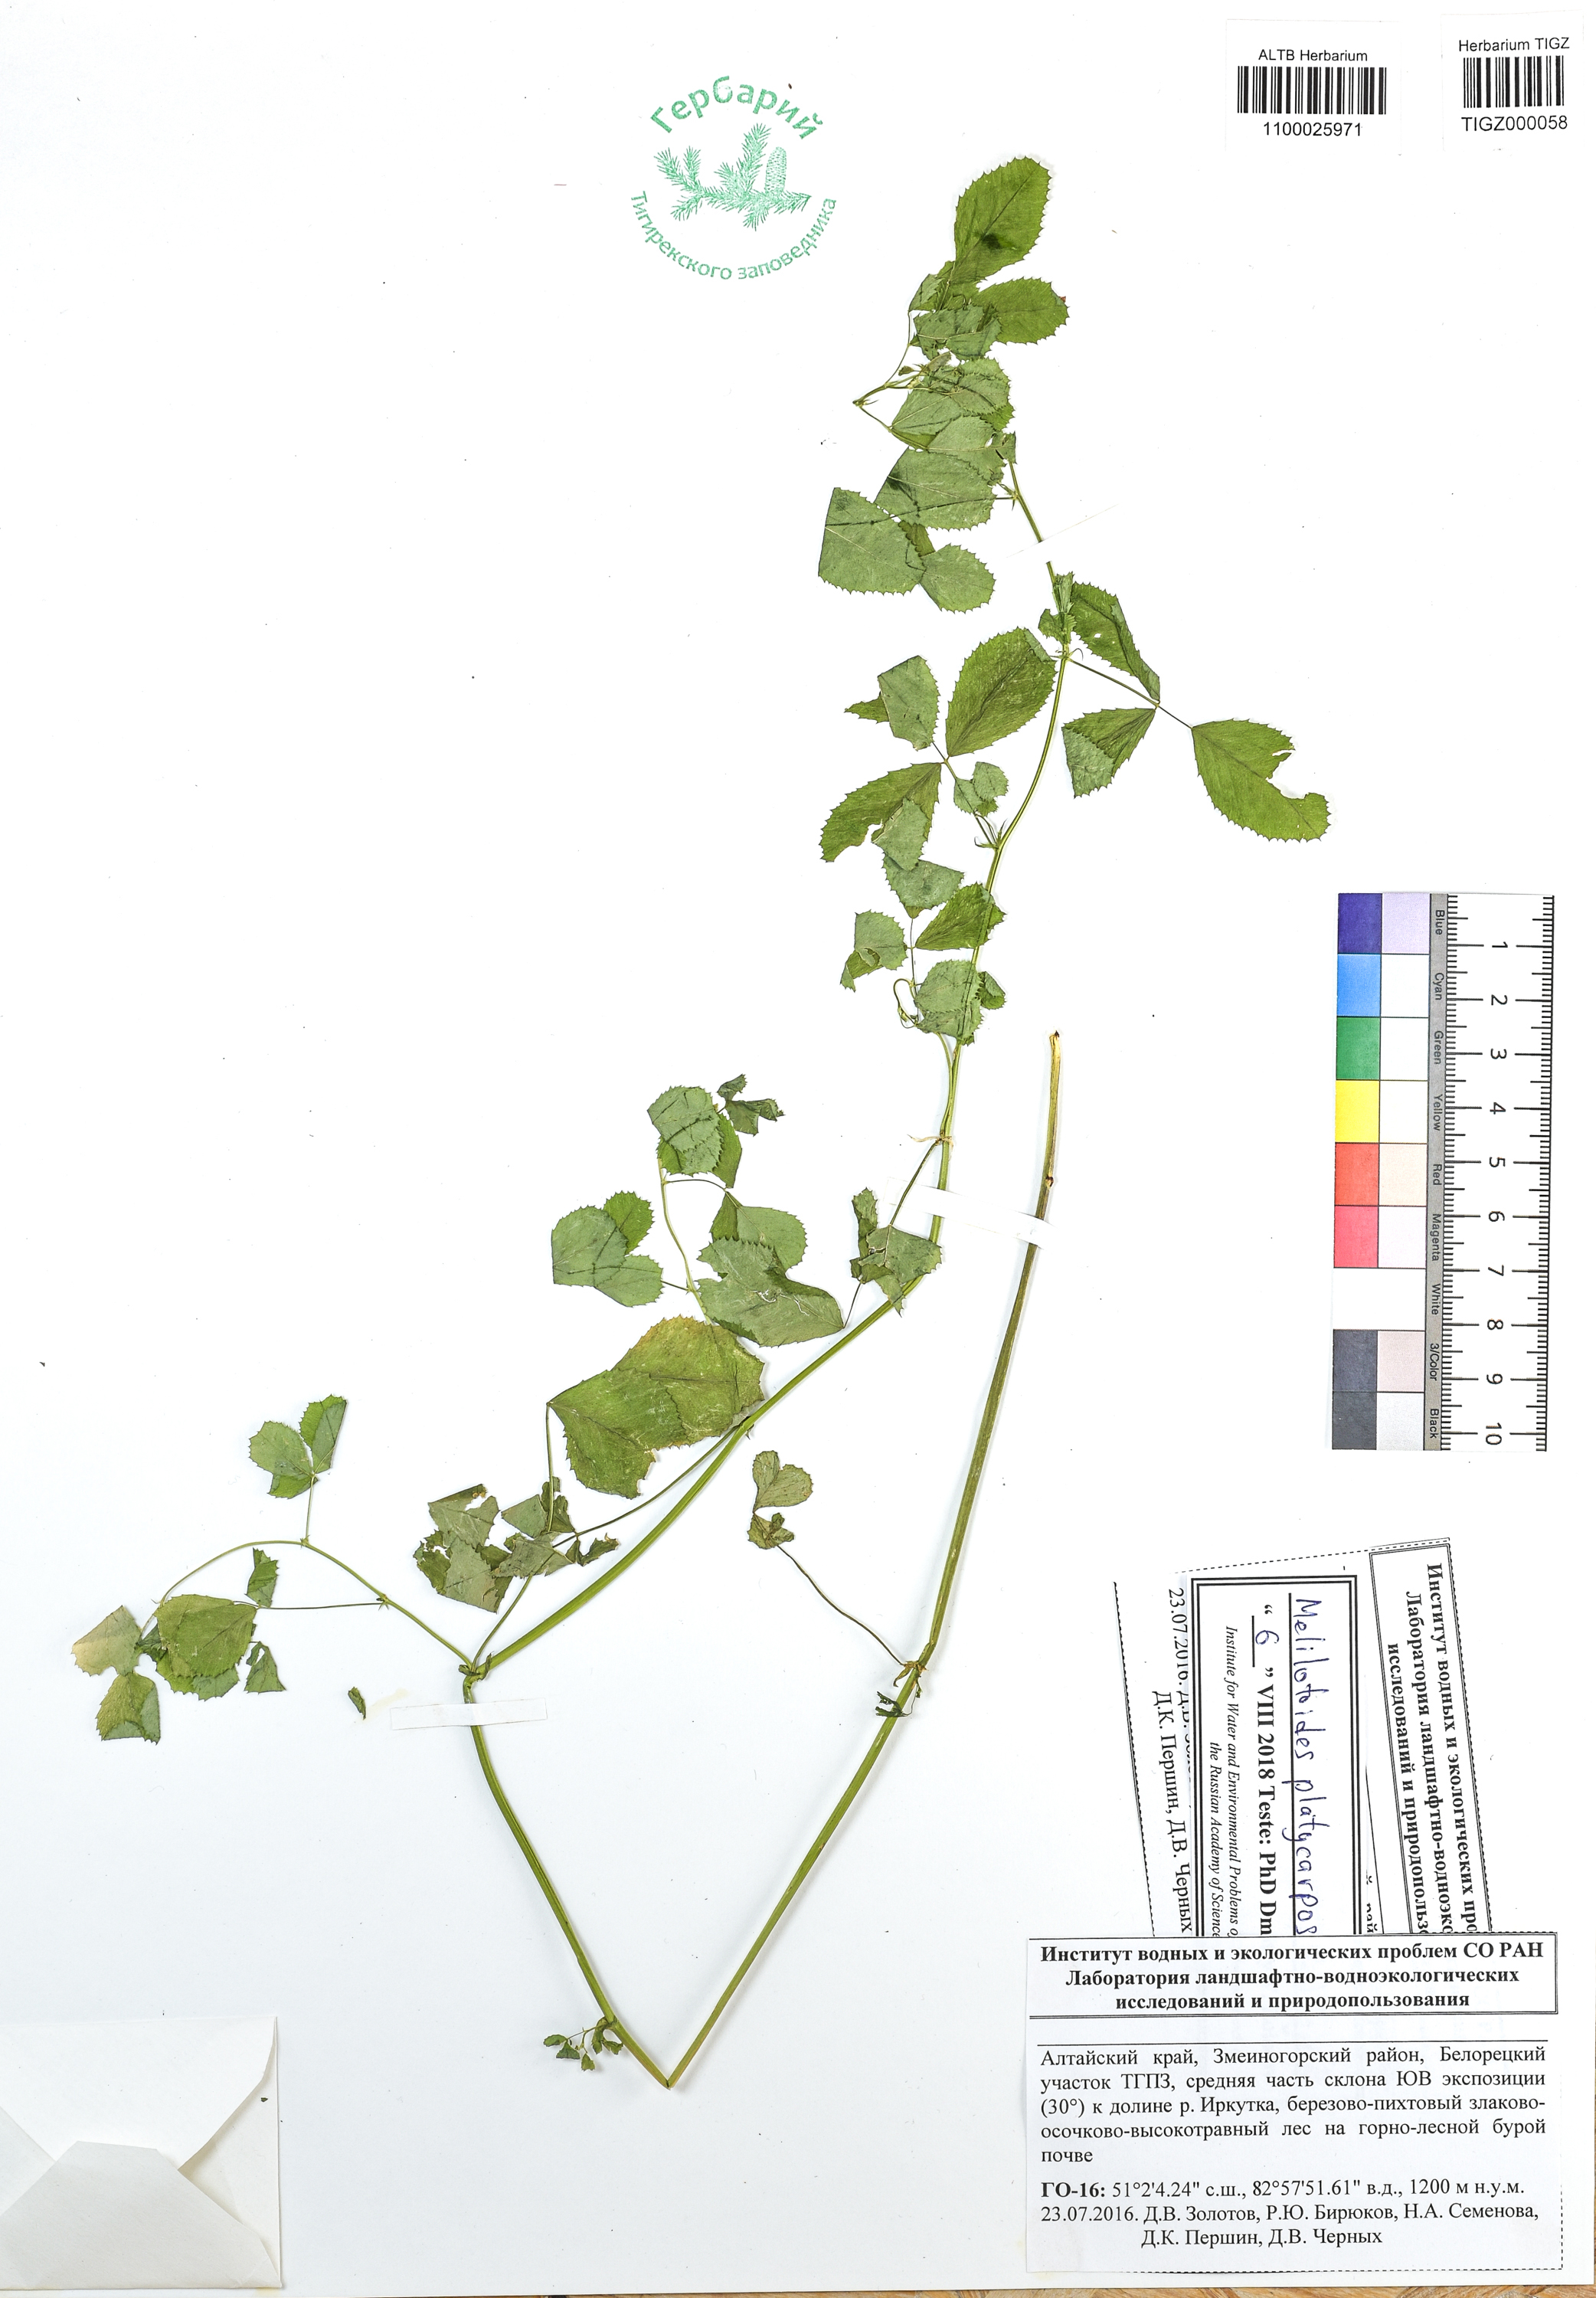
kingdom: Plantae
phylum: Tracheophyta
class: Magnoliopsida
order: Fabales
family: Fabaceae
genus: Medicago
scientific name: Medicago platycarpos
